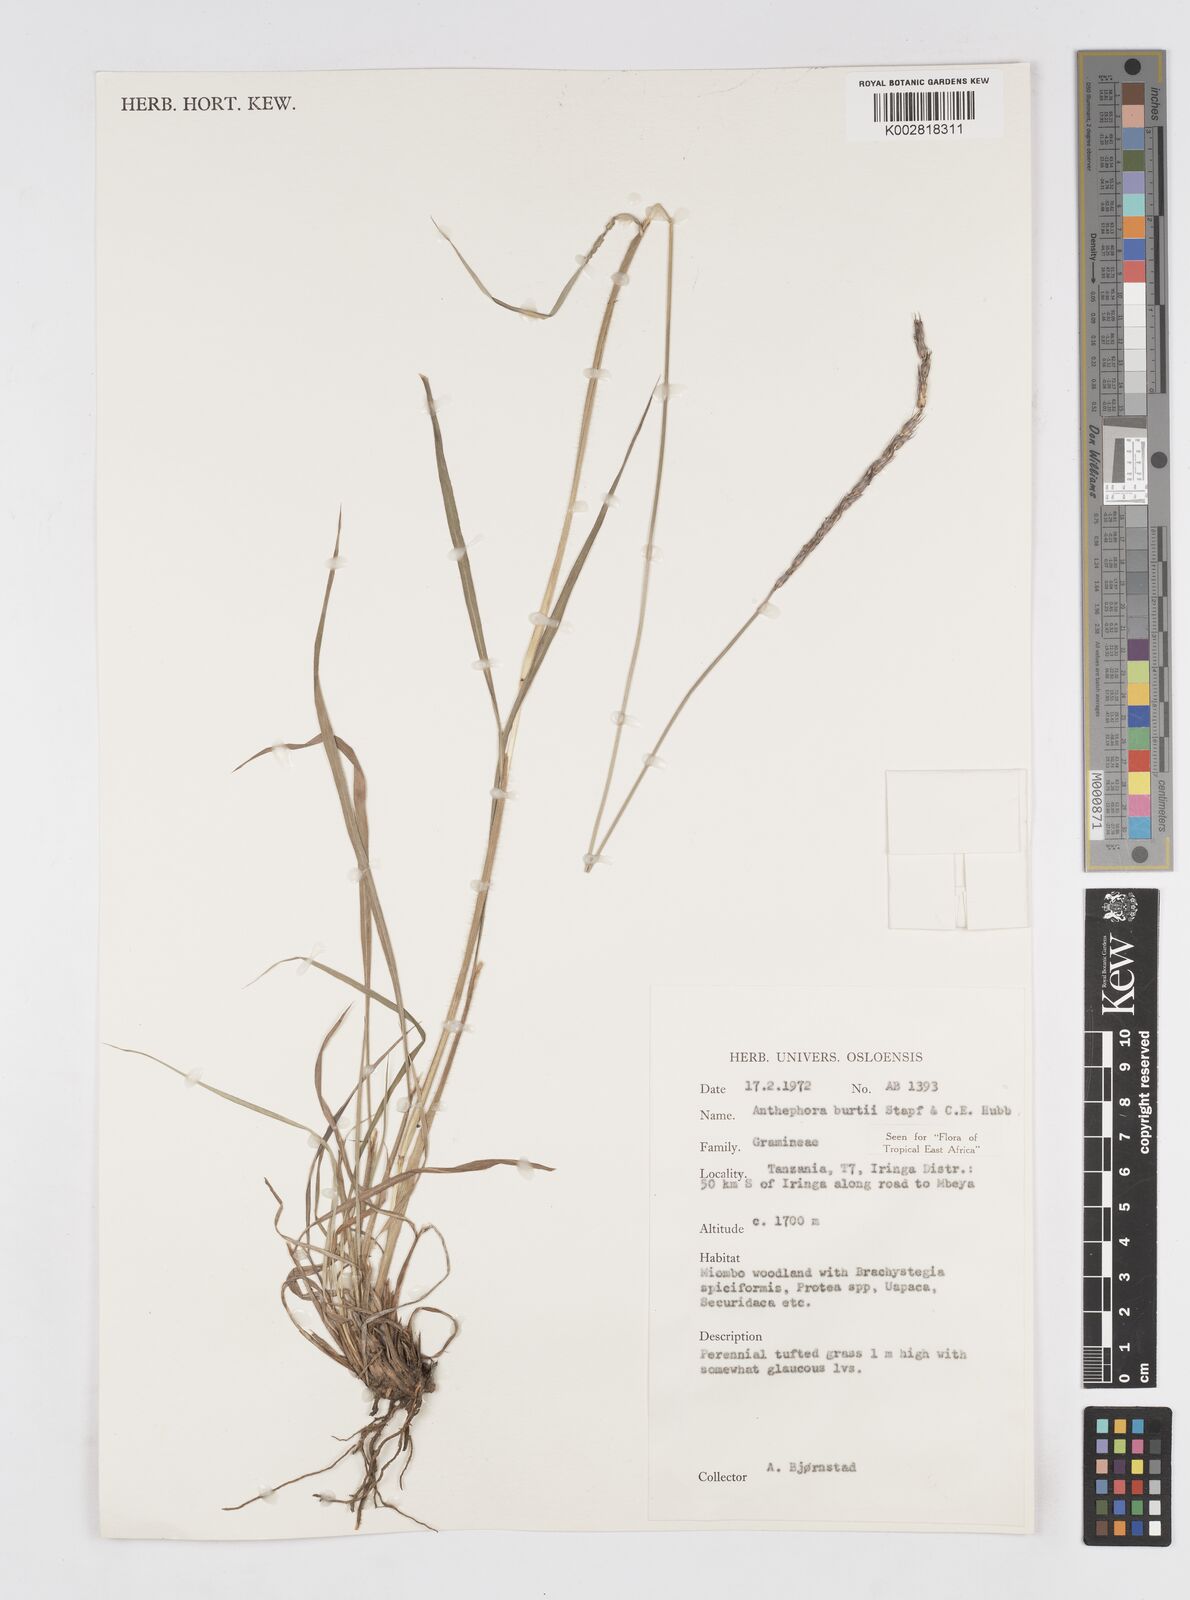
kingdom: Plantae
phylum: Tracheophyta
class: Liliopsida
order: Poales
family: Poaceae
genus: Anthephora
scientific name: Anthephora elongata
